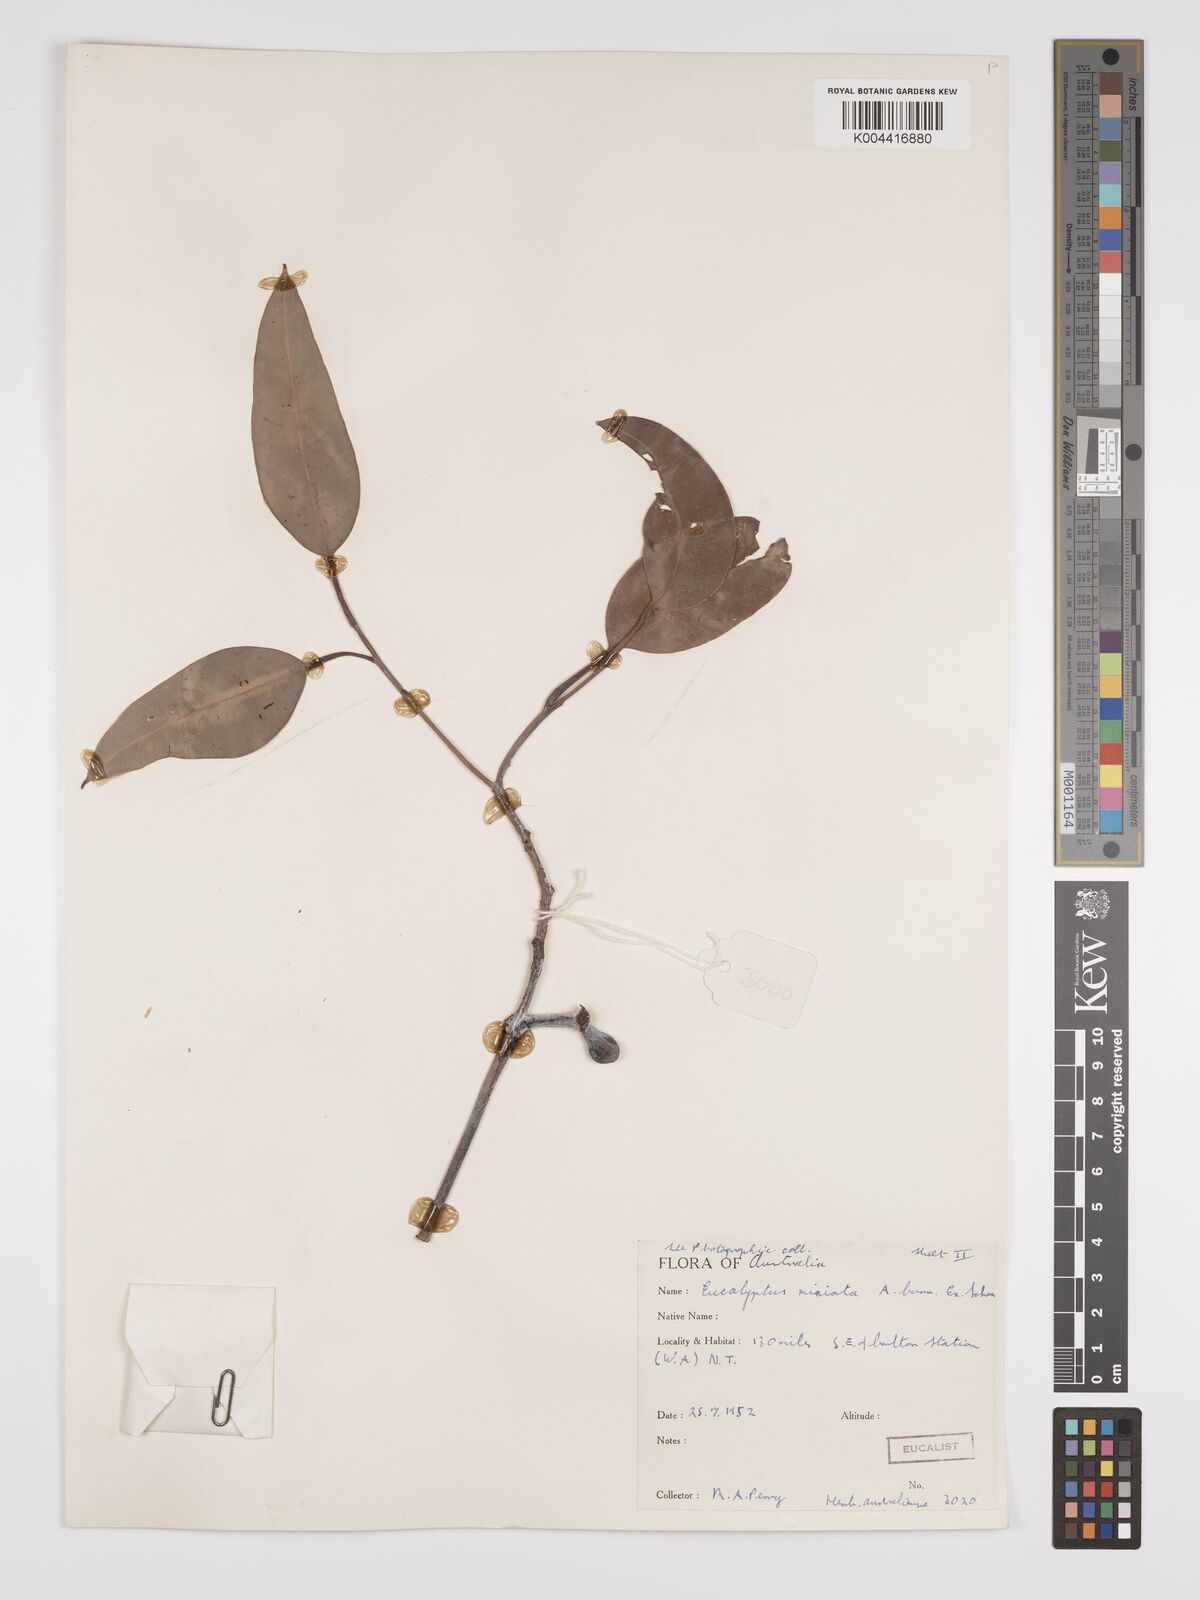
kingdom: Plantae
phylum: Tracheophyta
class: Magnoliopsida
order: Myrtales
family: Myrtaceae
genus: Eucalyptus
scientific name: Eucalyptus miniata
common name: Darwin-woollybutt
